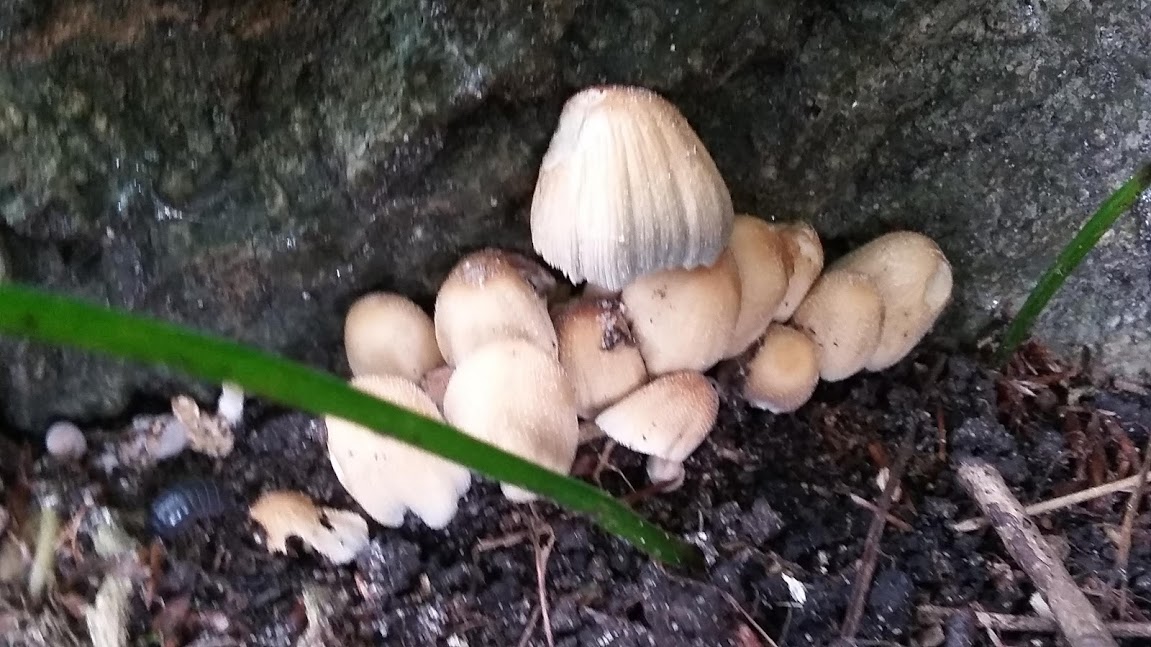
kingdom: Fungi
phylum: Basidiomycota
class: Agaricomycetes
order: Agaricales
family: Psathyrellaceae
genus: Coprinellus
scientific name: Coprinellus
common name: blækhat
